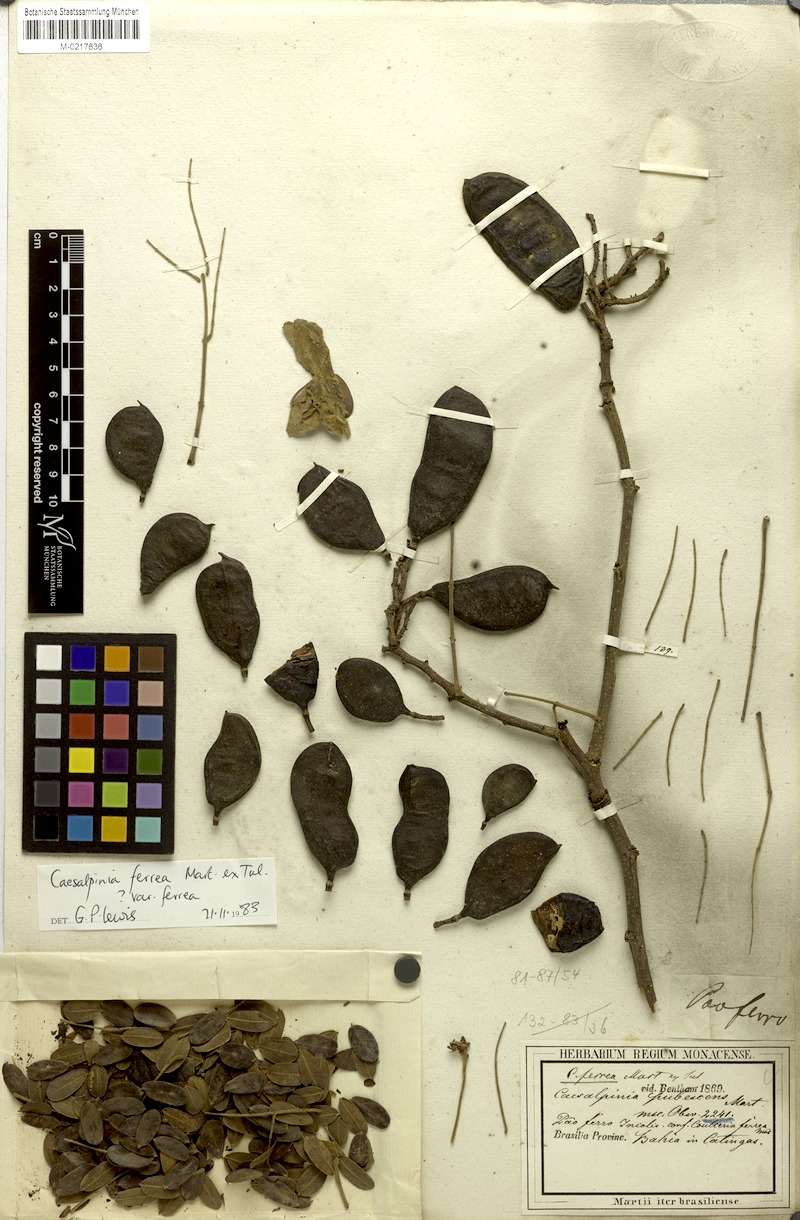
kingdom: Plantae
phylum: Tracheophyta
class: Magnoliopsida
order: Fabales
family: Fabaceae
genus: Libidibia
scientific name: Libidibia ferrea
